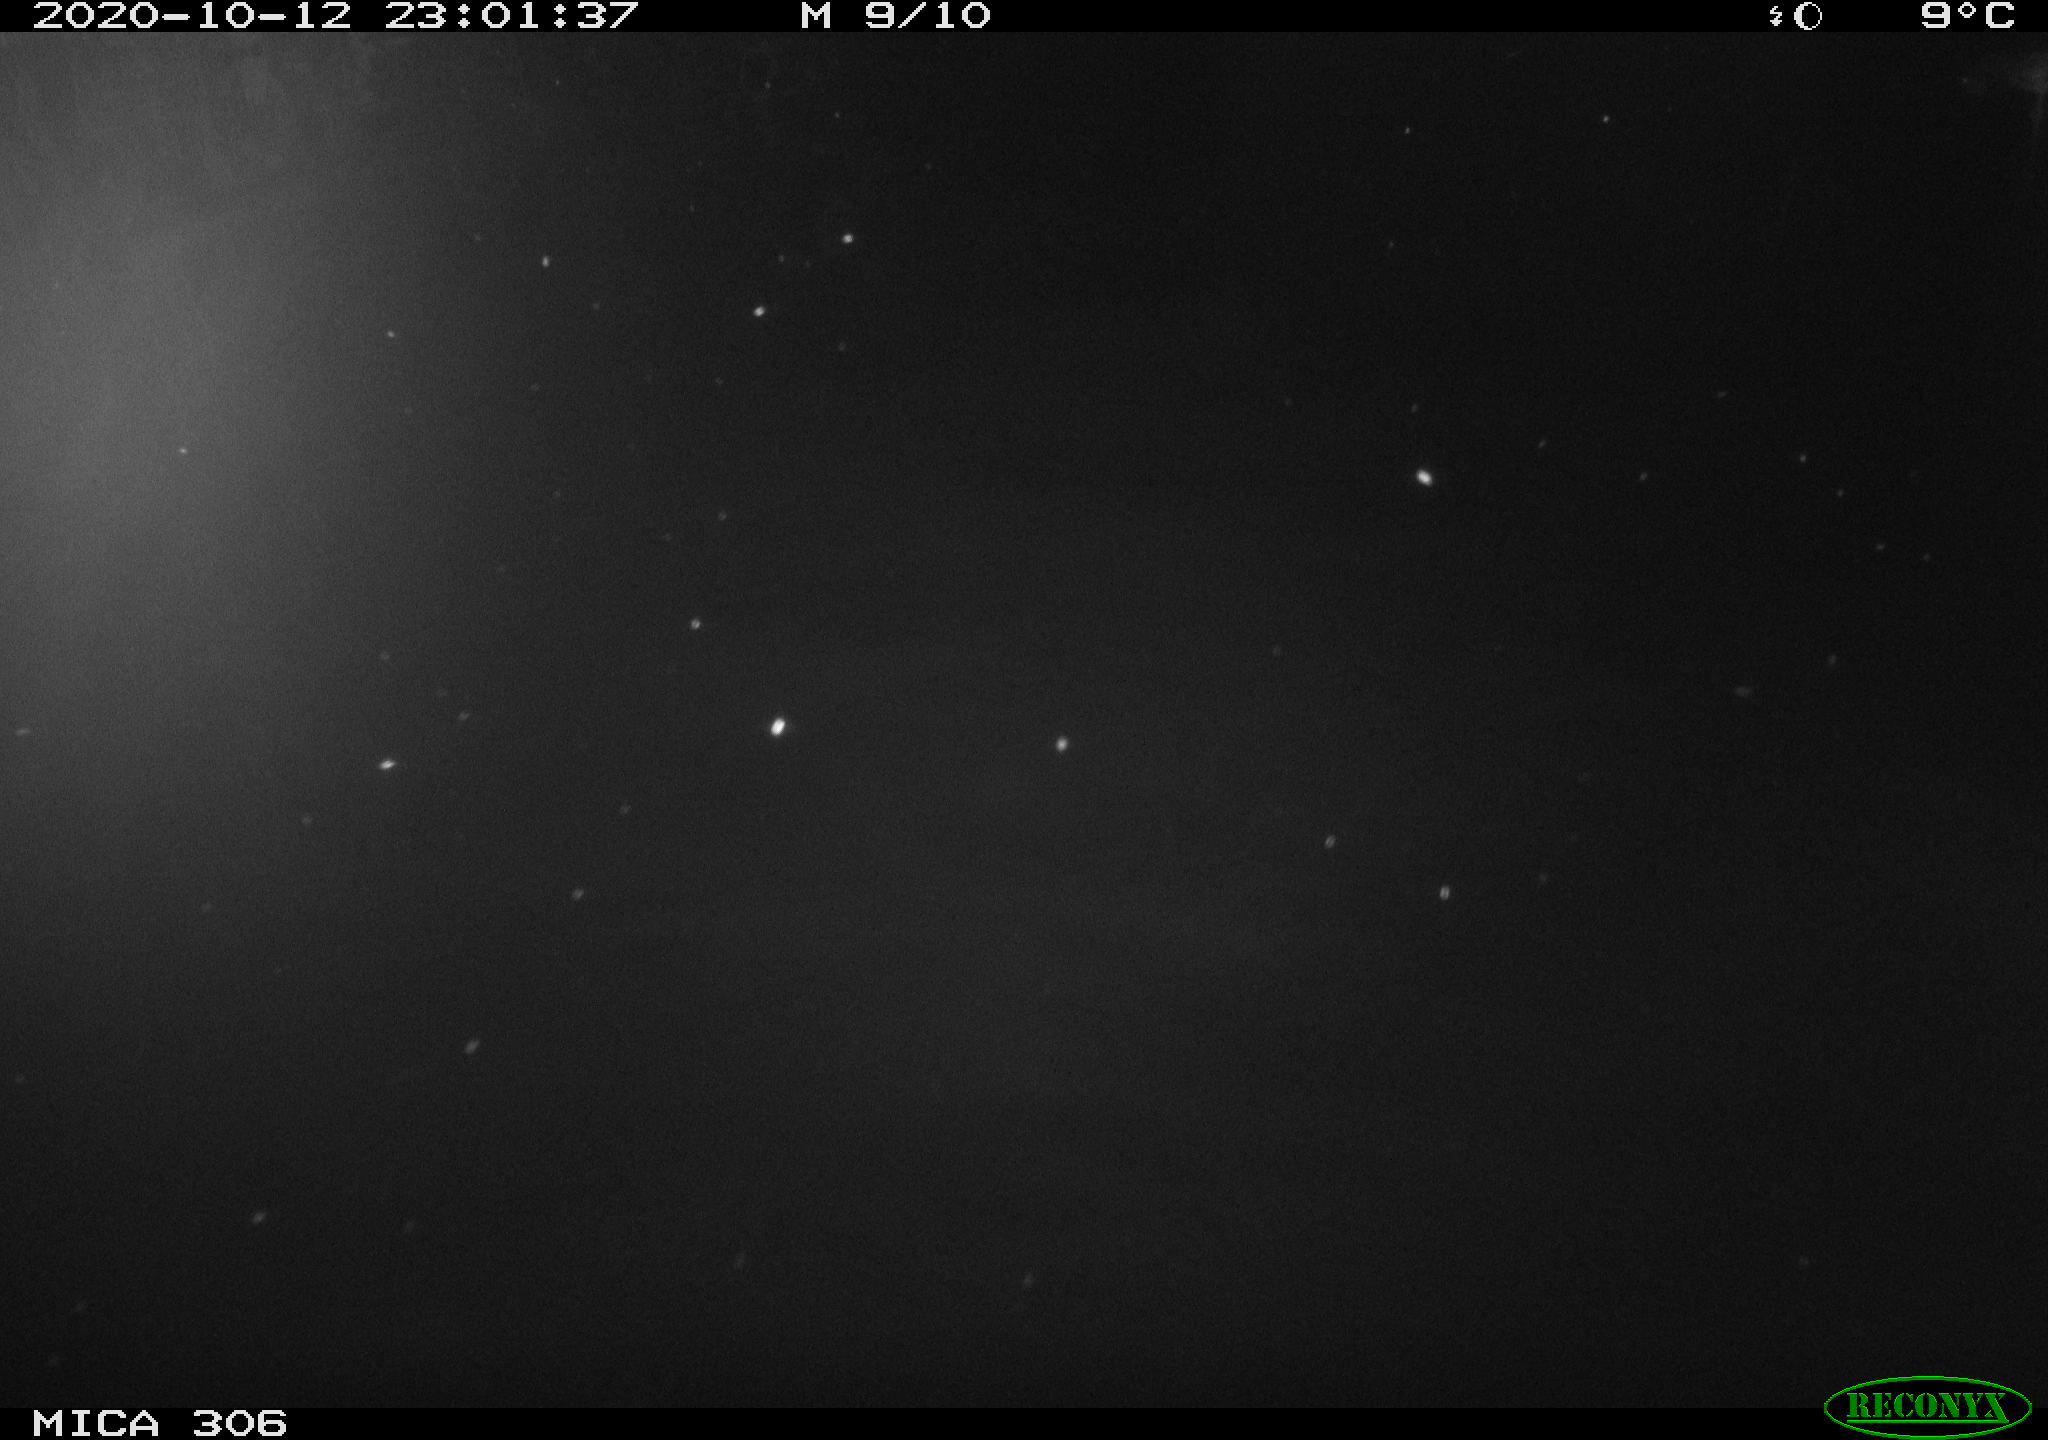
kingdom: Animalia
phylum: Chordata
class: Mammalia
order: Rodentia
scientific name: Rodentia
